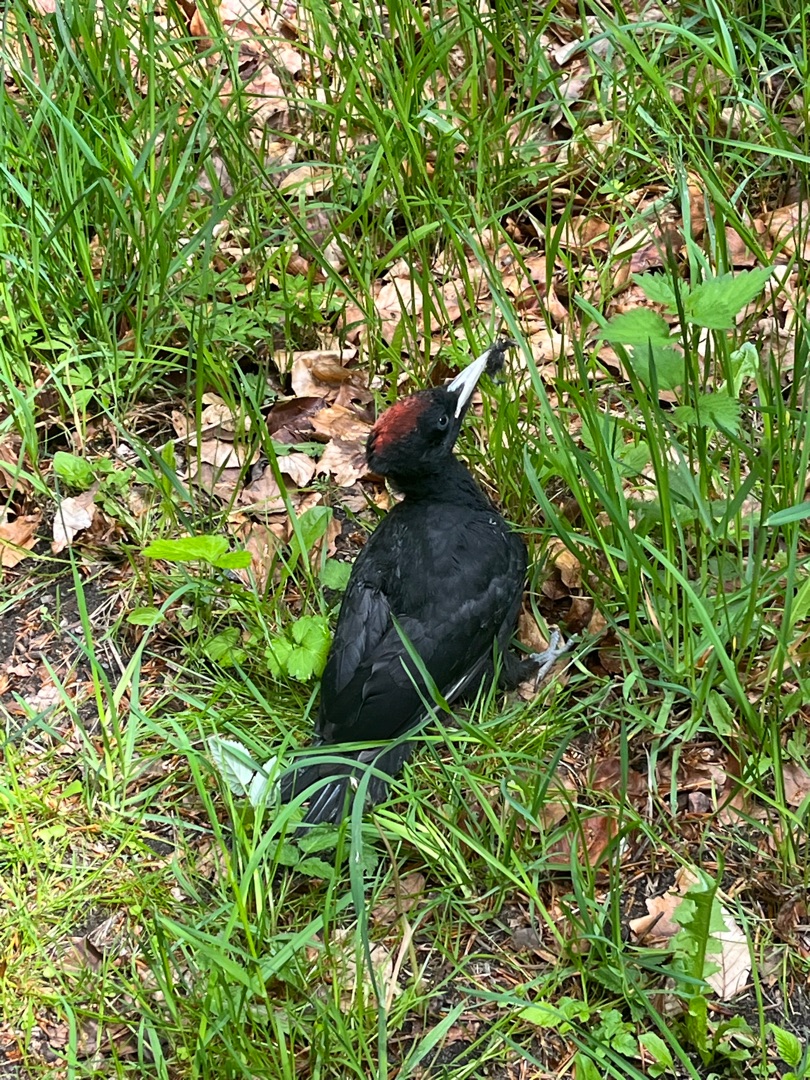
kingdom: Animalia
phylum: Chordata
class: Aves
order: Piciformes
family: Picidae
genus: Dryocopus
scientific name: Dryocopus martius
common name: Sortspætte
